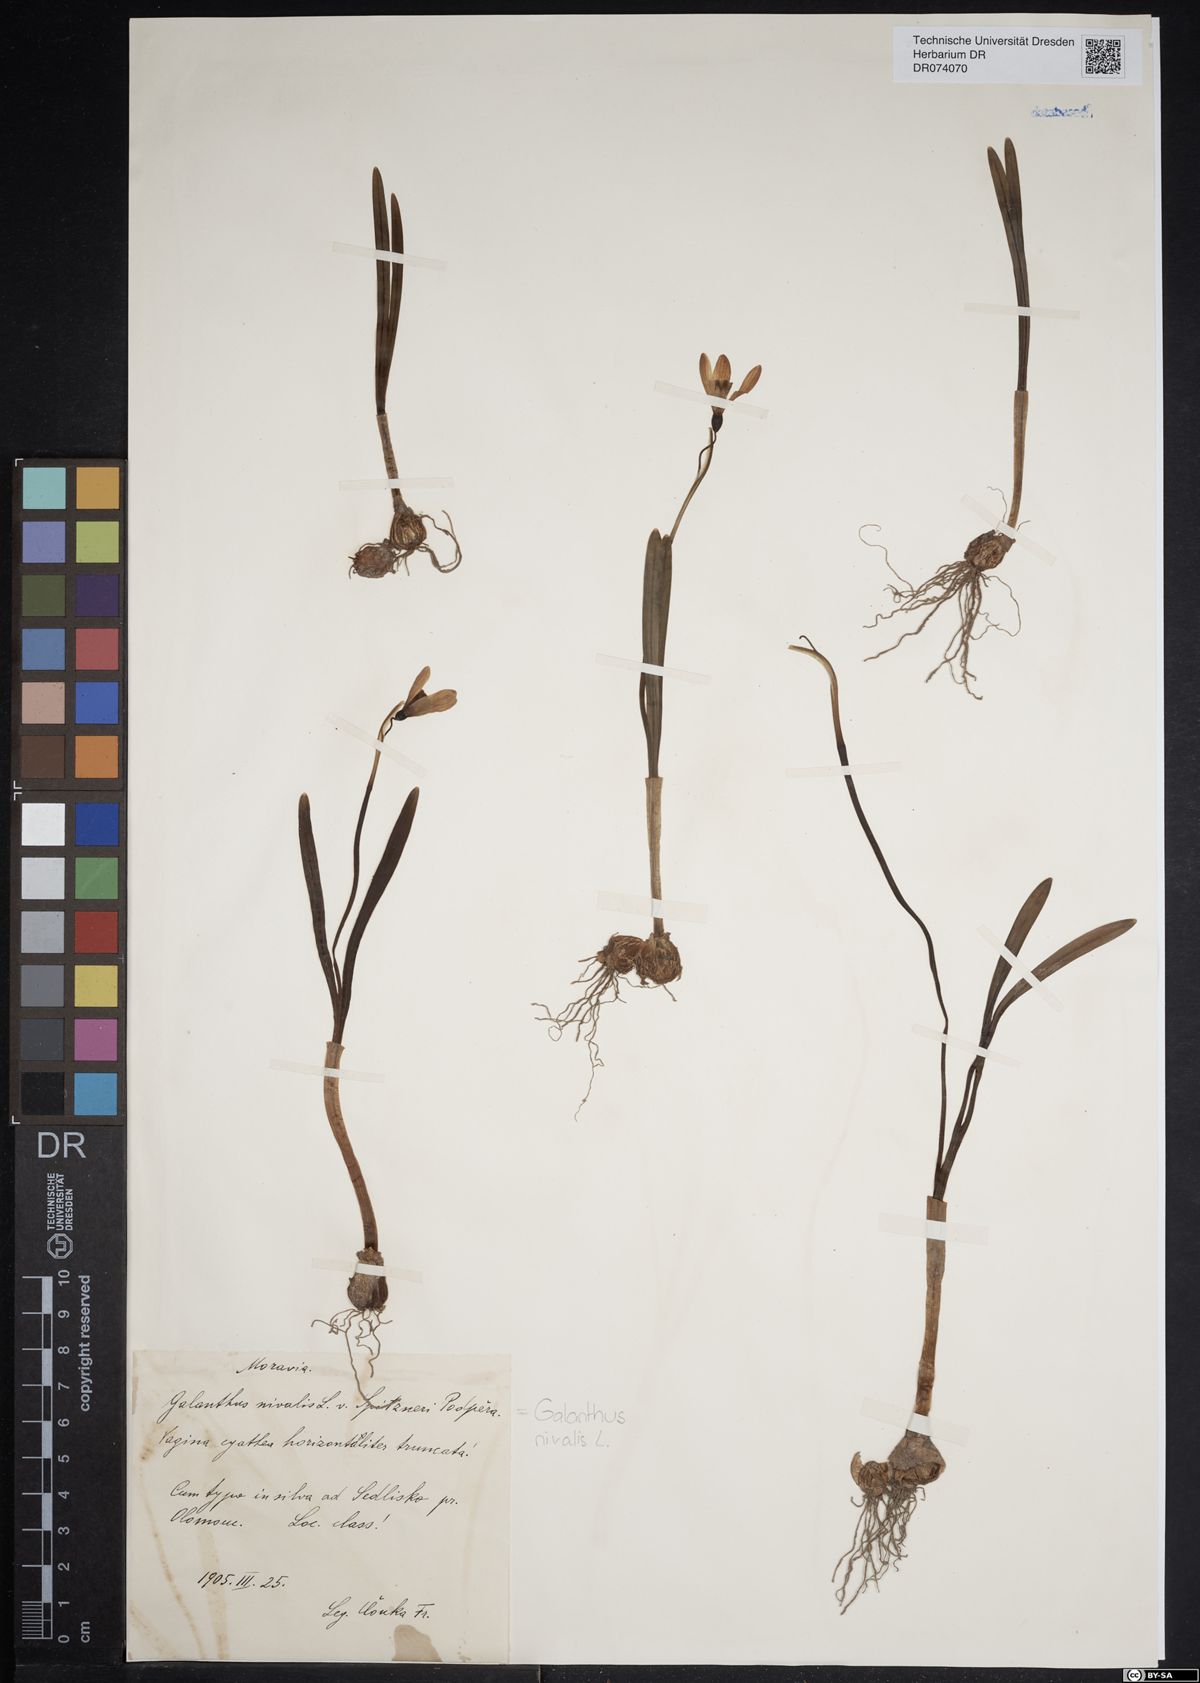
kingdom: Plantae
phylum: Tracheophyta
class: Liliopsida
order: Asparagales
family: Amaryllidaceae
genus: Galanthus
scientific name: Galanthus nivalis
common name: Snowdrop
